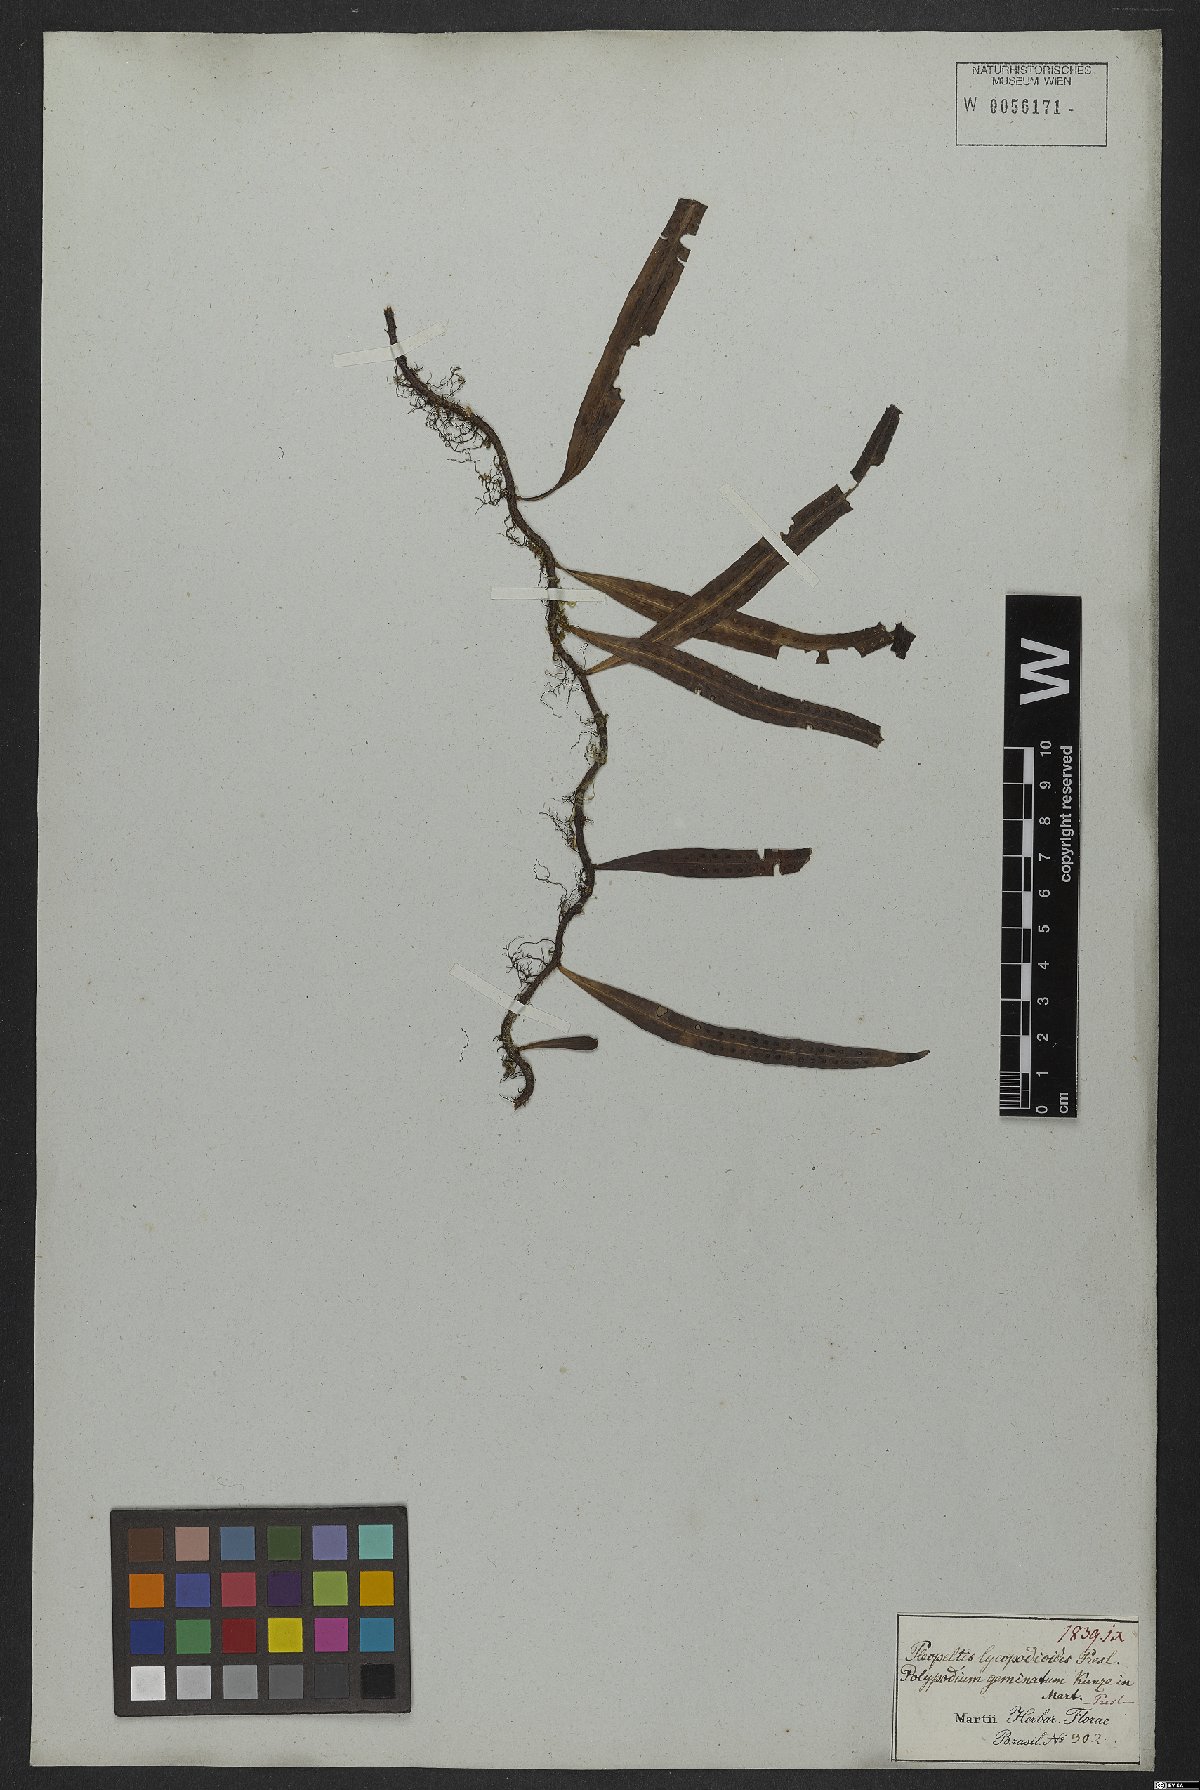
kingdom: Plantae
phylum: Tracheophyta
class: Polypodiopsida
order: Polypodiales
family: Polypodiaceae
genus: Microgramma
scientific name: Microgramma lycopodioides
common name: Bastard catclaw
